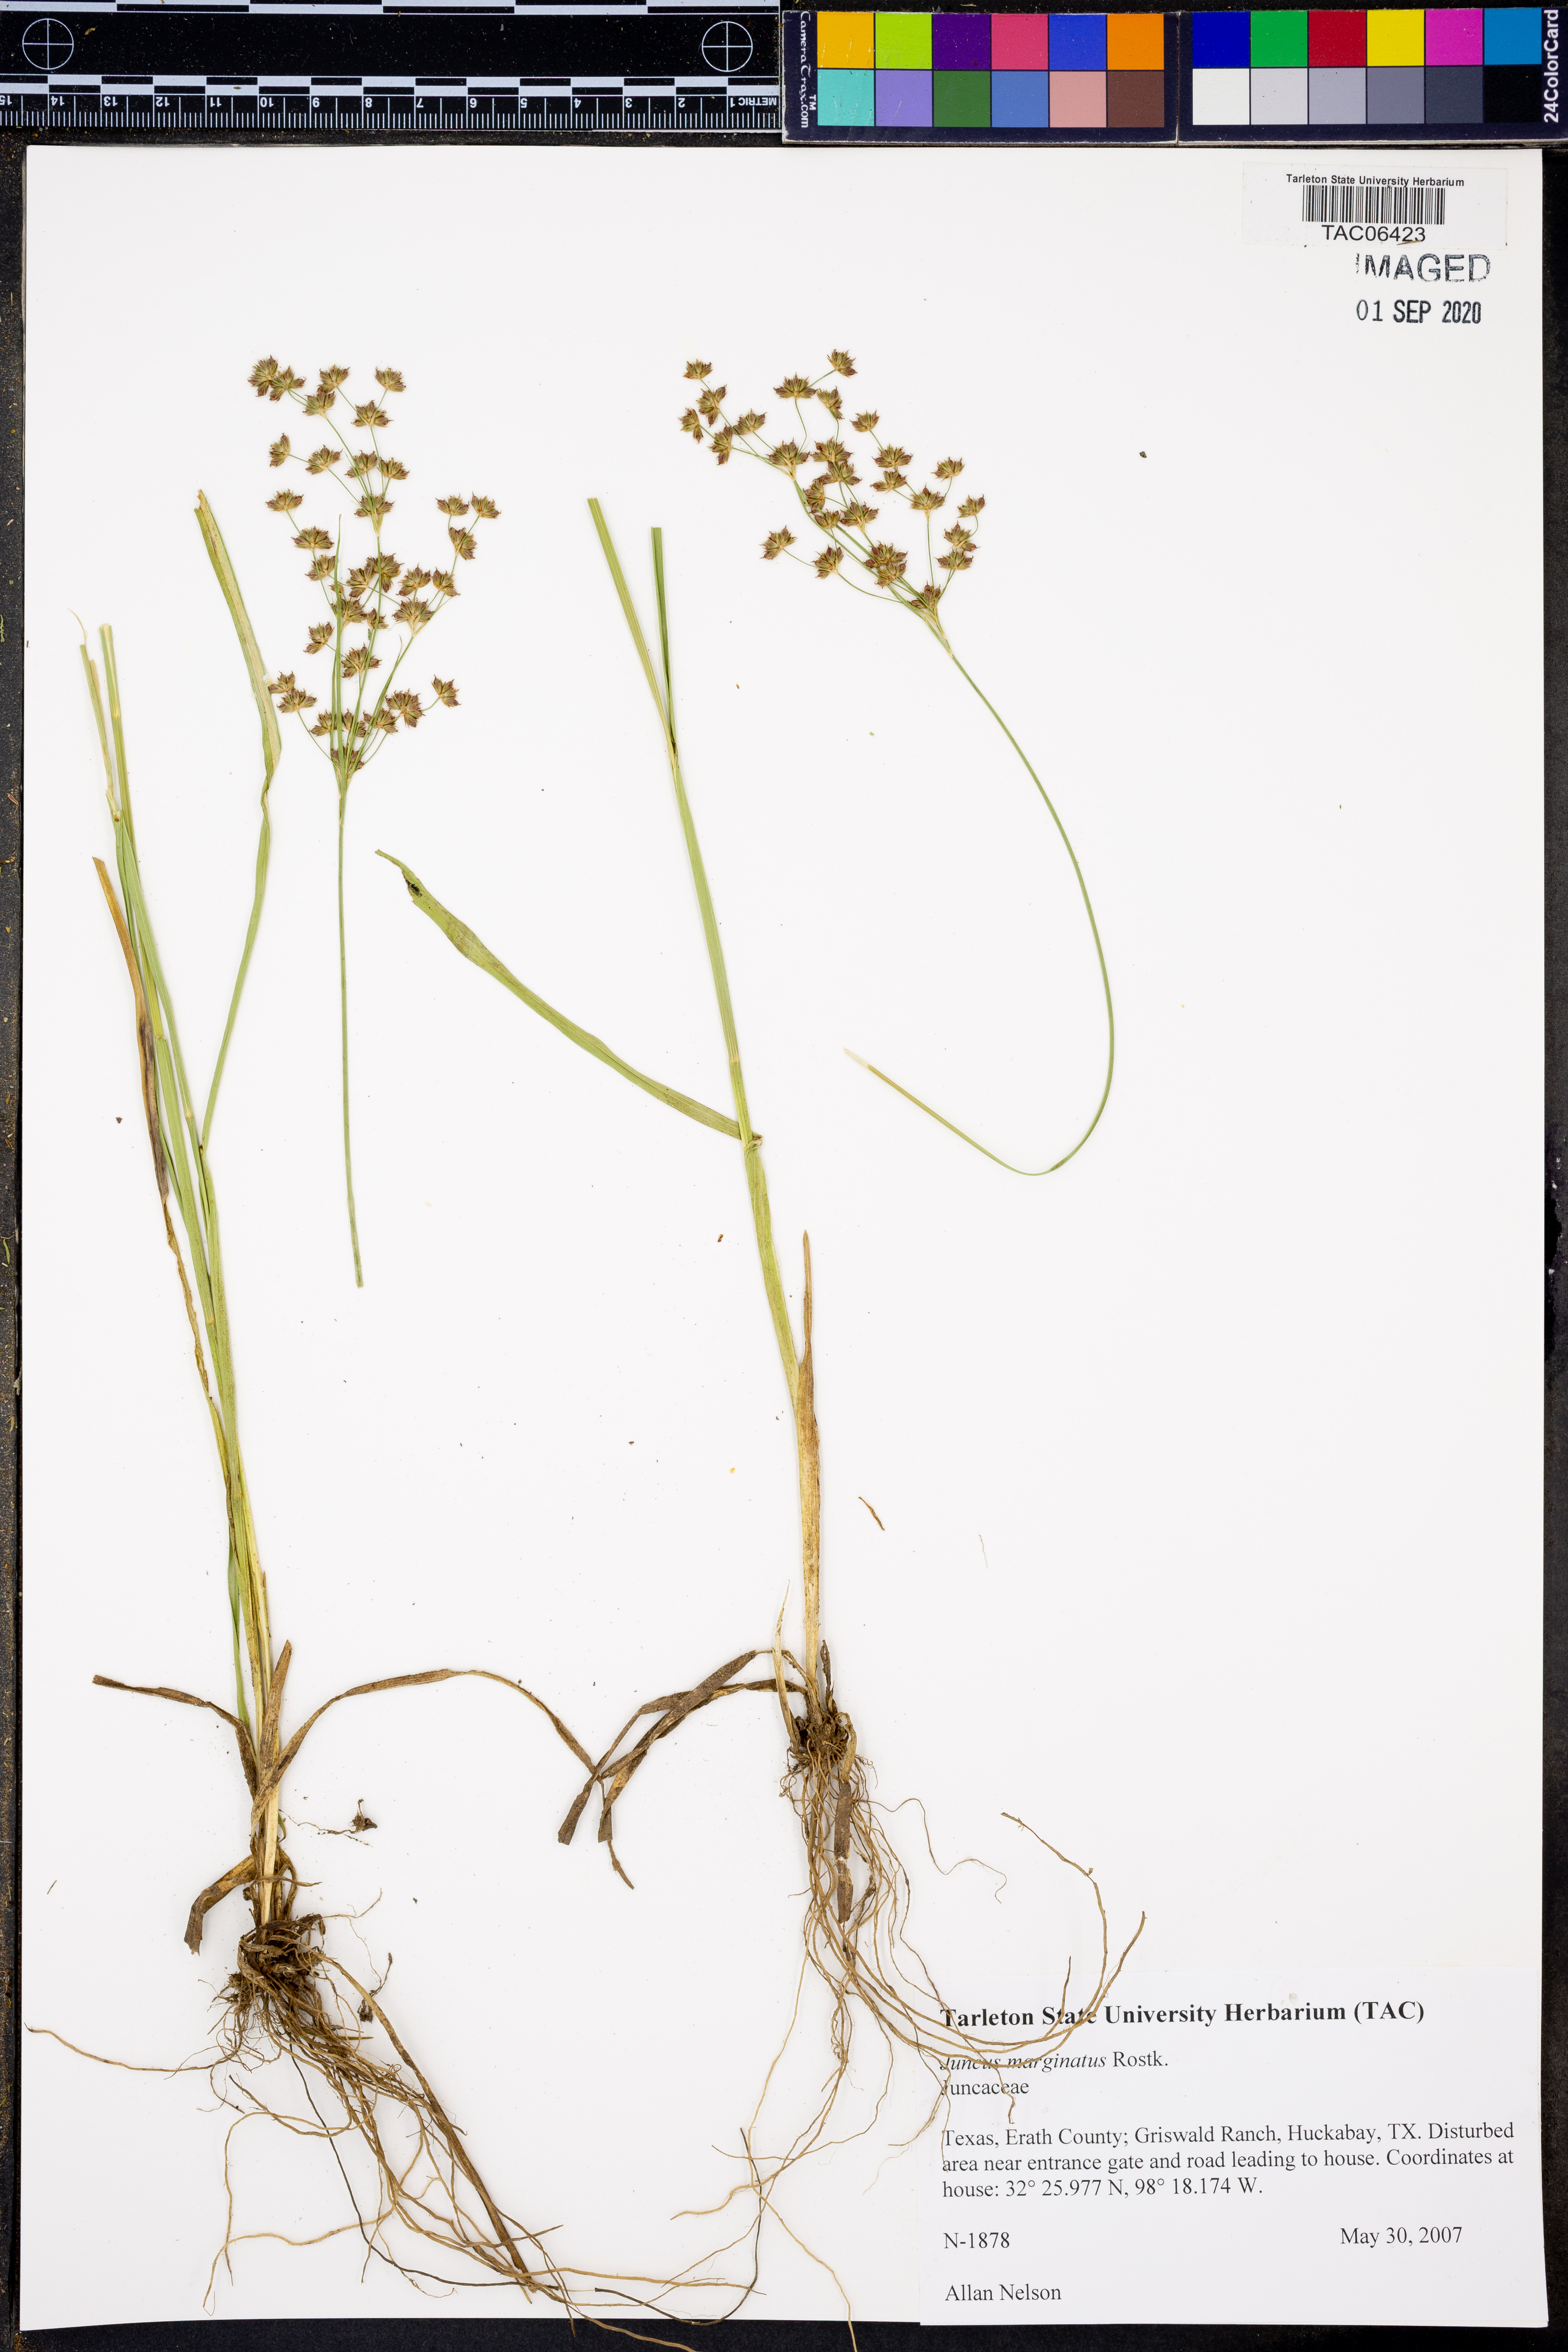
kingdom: Plantae
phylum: Tracheophyta
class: Liliopsida
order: Poales
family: Juncaceae
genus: Juncus
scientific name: Juncus marginatus
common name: Grass-leaf rush
